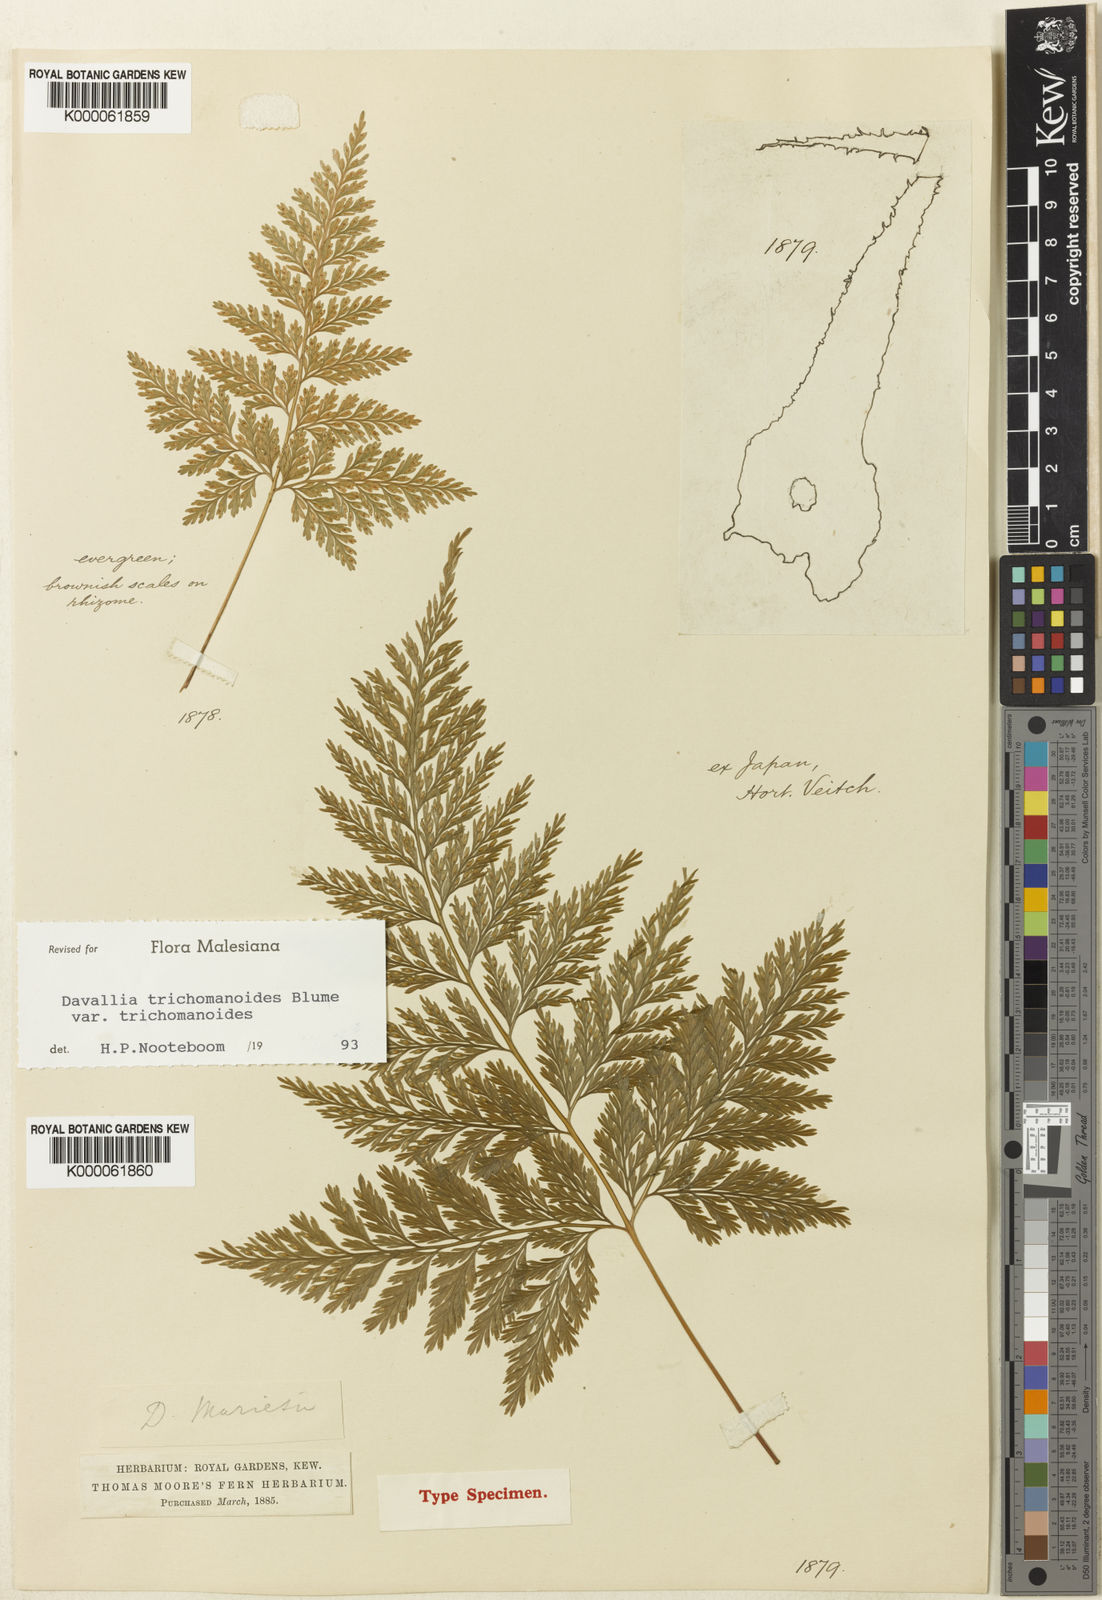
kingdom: Plantae
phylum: Tracheophyta
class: Polypodiopsida
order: Polypodiales
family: Davalliaceae
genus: Davallia
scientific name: Davallia mariesii
